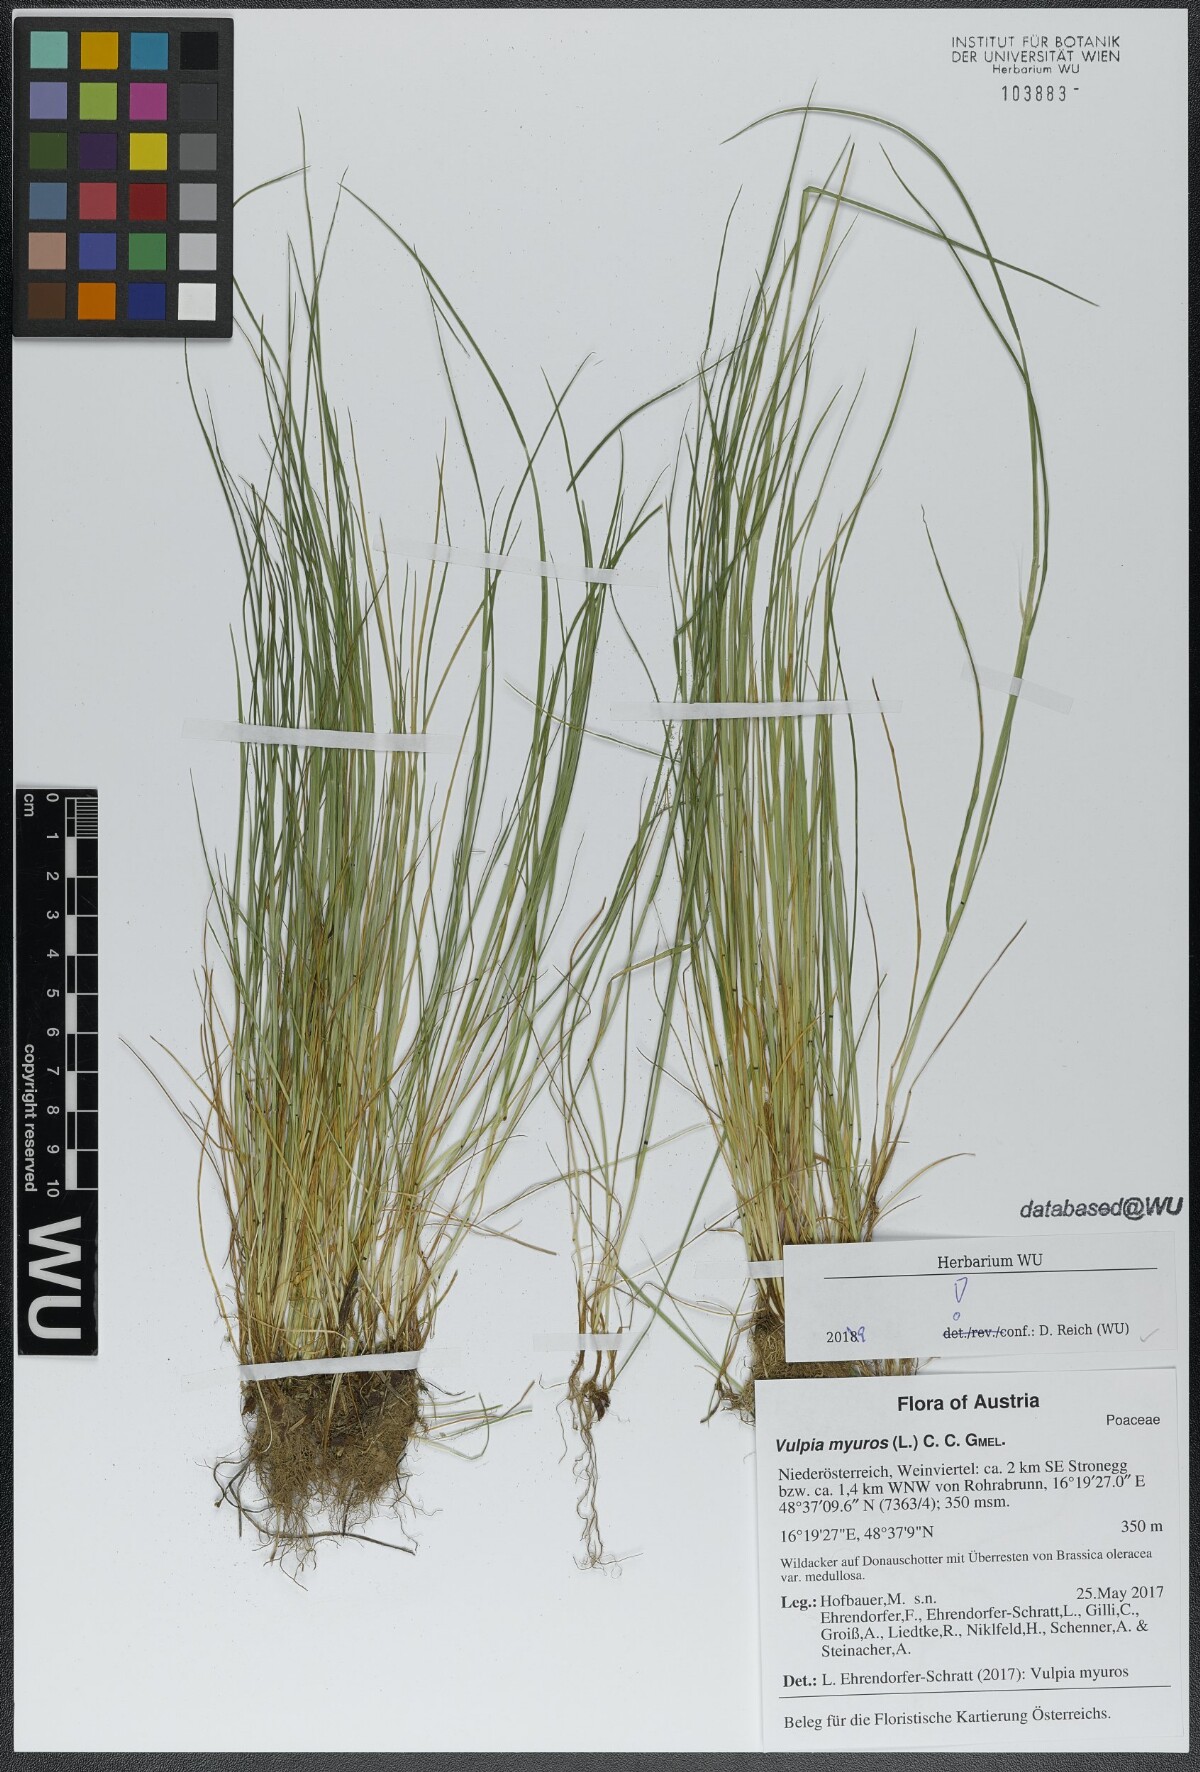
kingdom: Plantae
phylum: Tracheophyta
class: Liliopsida
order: Poales
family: Poaceae
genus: Festuca
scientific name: Festuca myuros
